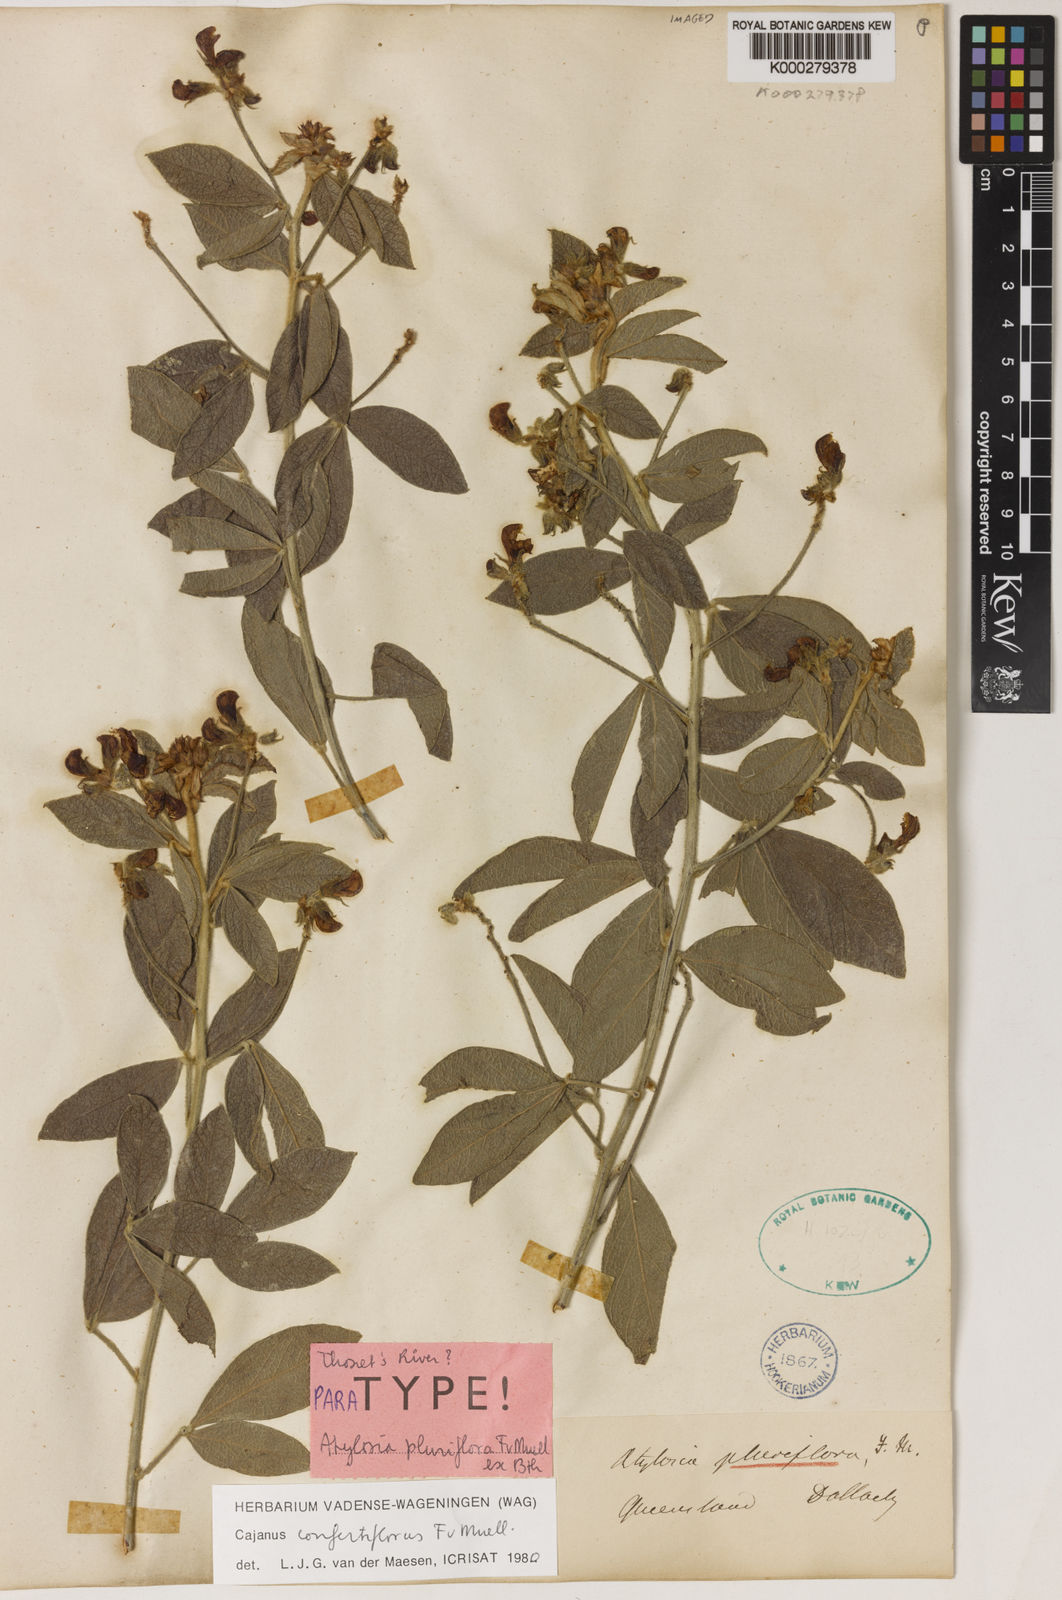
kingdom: Plantae
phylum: Tracheophyta
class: Magnoliopsida
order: Fabales
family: Fabaceae
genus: Cajanus
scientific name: Cajanus confertiflorus
